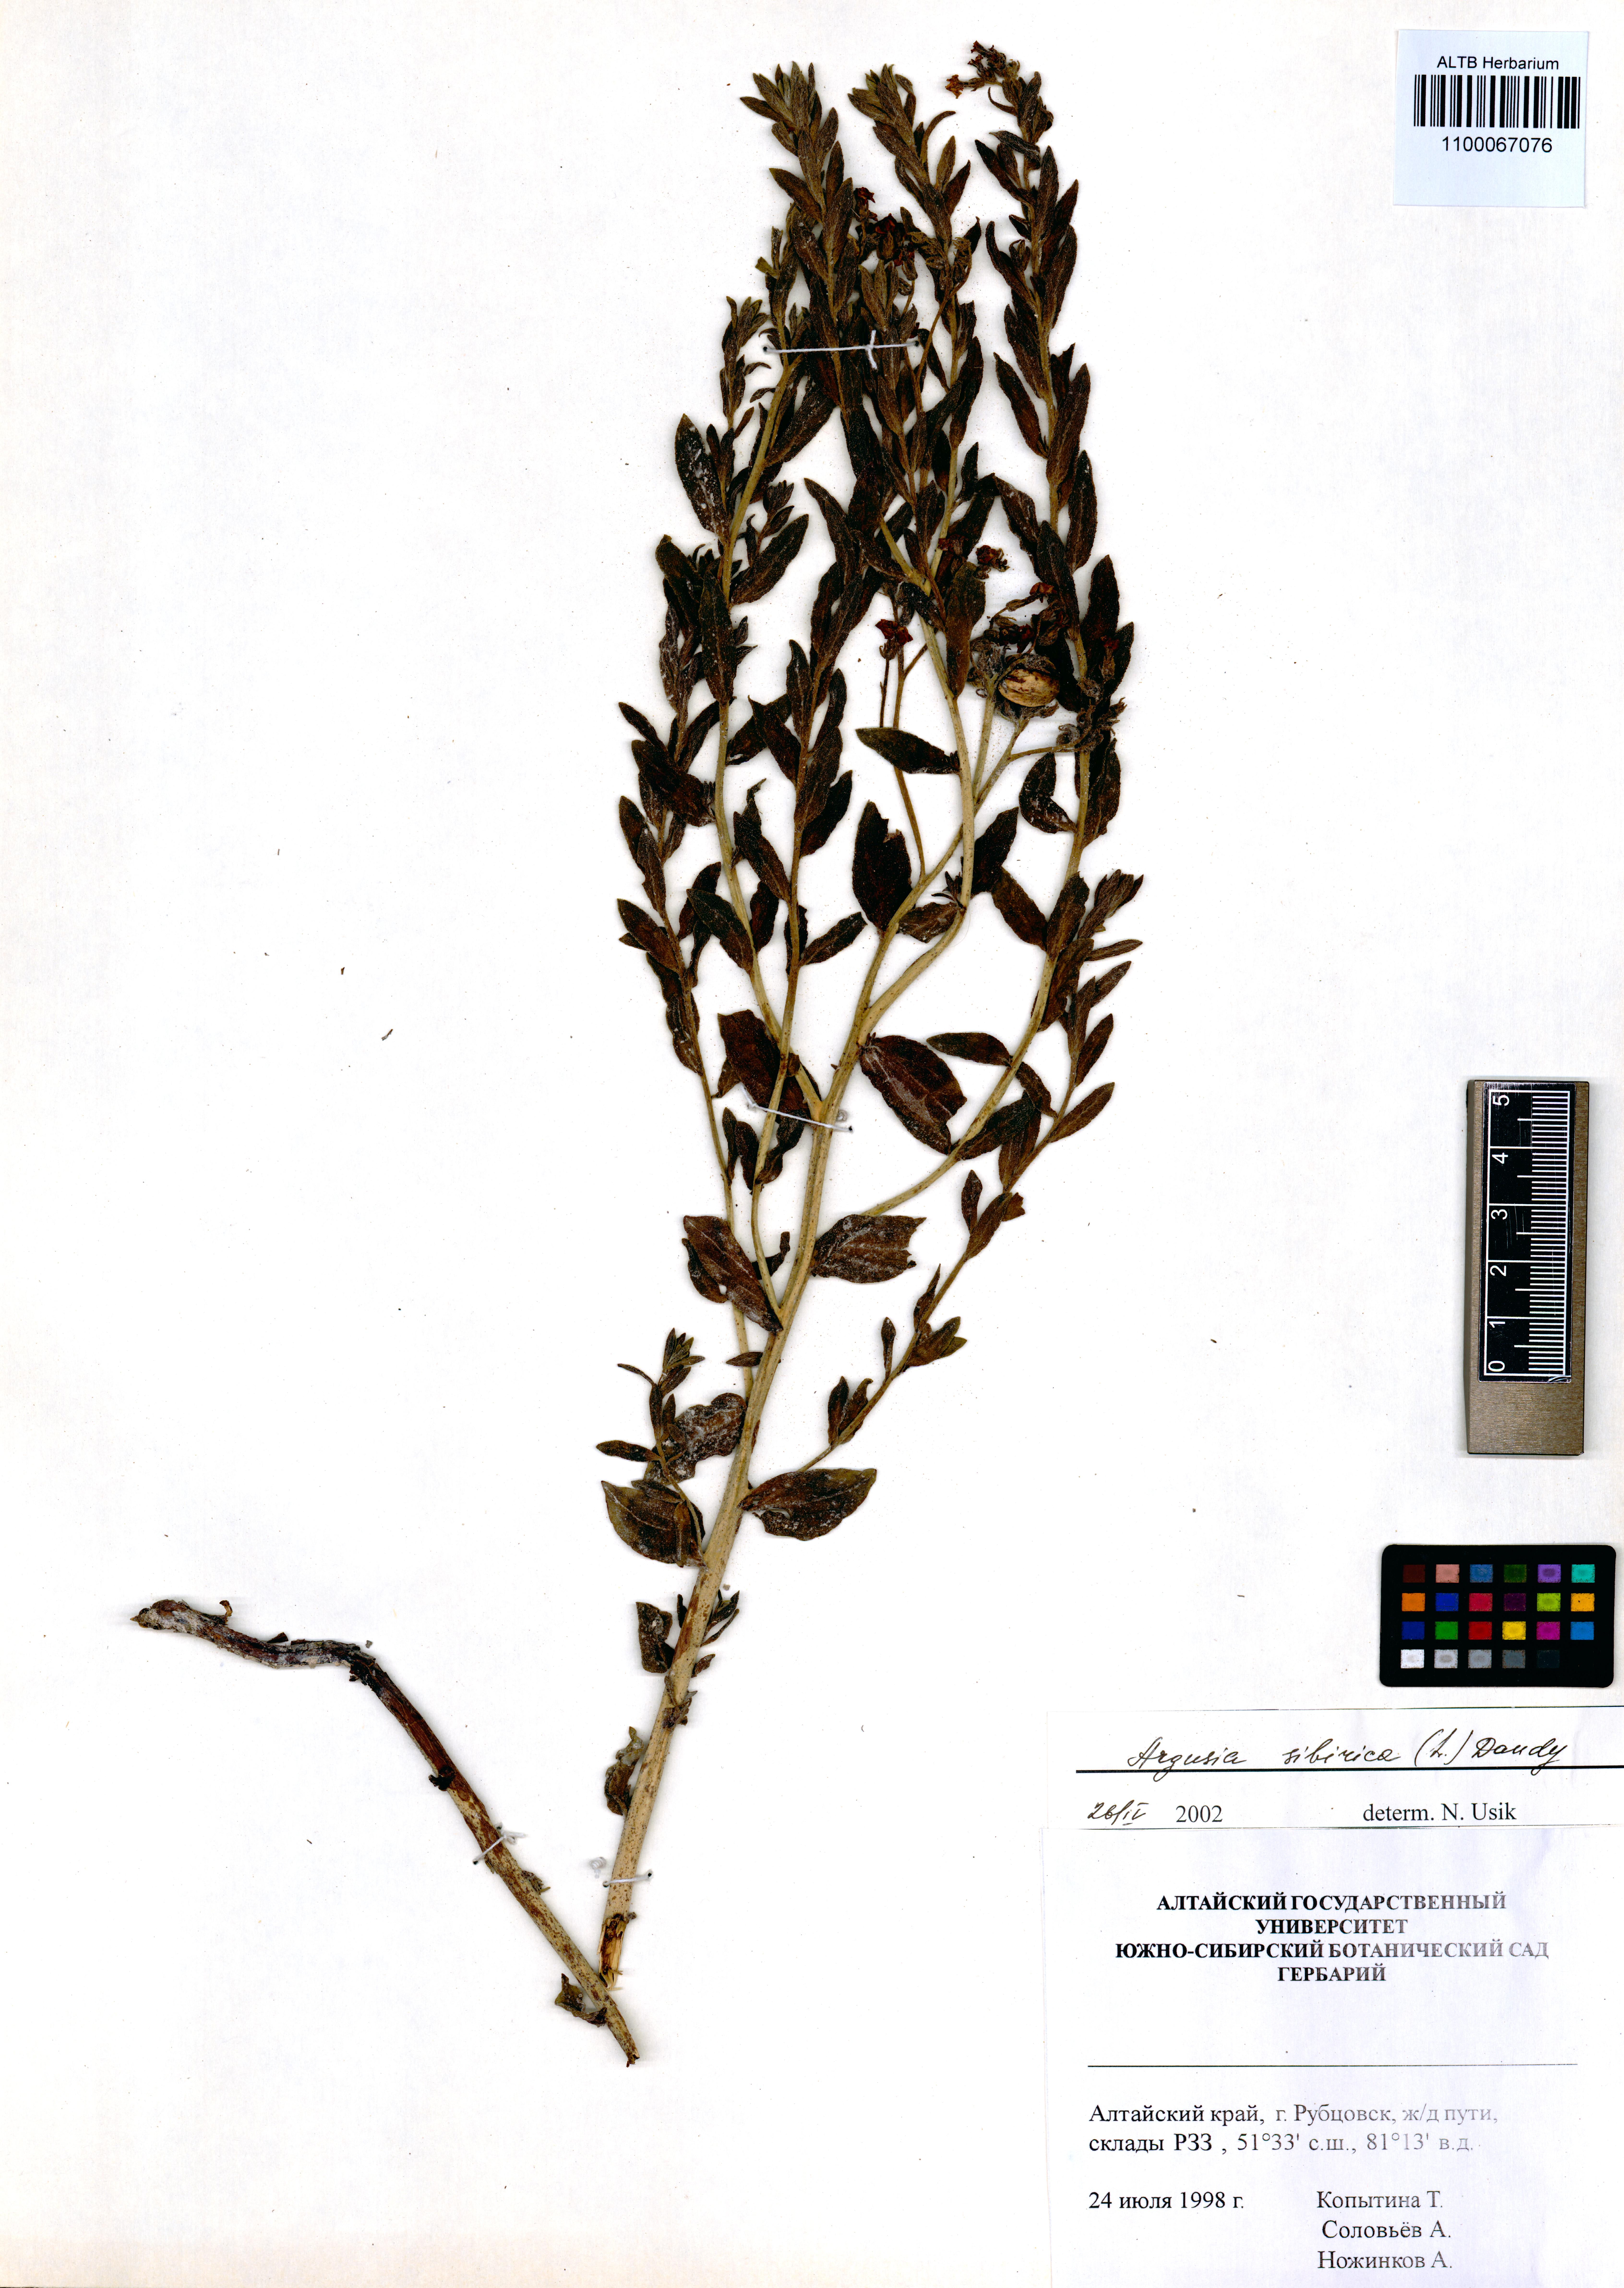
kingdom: Plantae
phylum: Tracheophyta
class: Magnoliopsida
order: Boraginales
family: Heliotropiaceae
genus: Tournefortia
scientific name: Tournefortia sibirica
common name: Siberian sea rosemary
